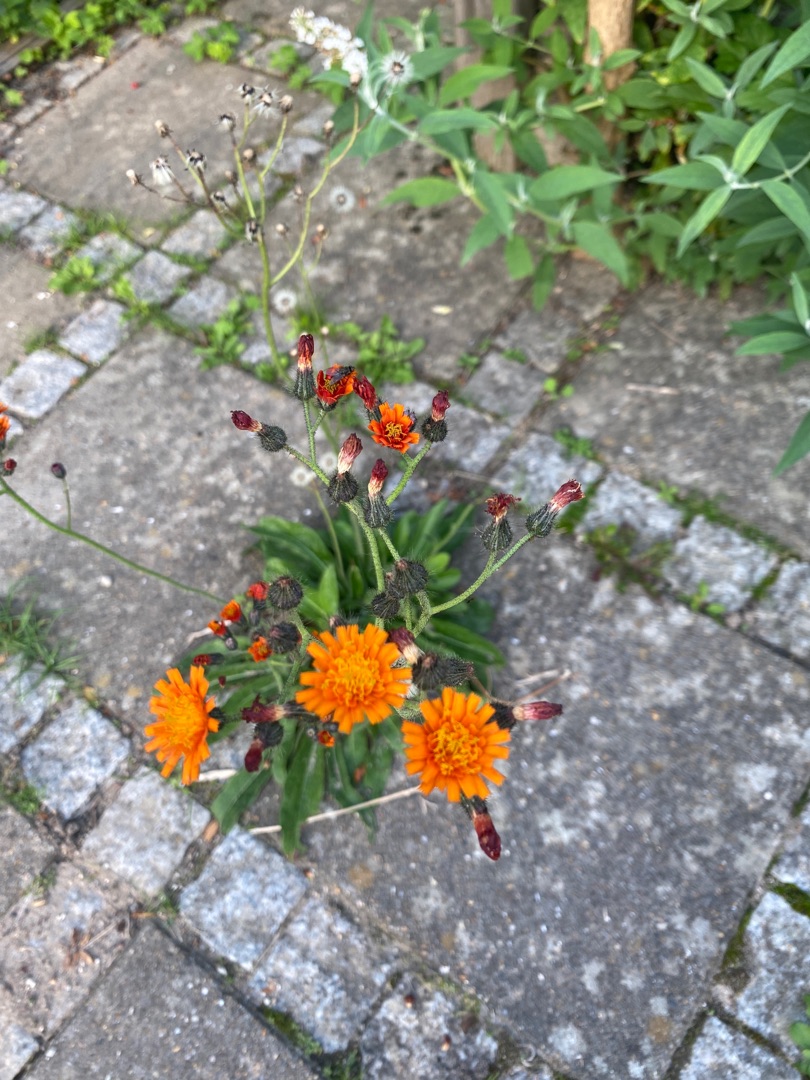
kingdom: Plantae
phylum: Tracheophyta
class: Magnoliopsida
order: Asterales
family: Asteraceae
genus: Pilosella
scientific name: Pilosella aurantiaca
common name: Pomerans-høgeurt
